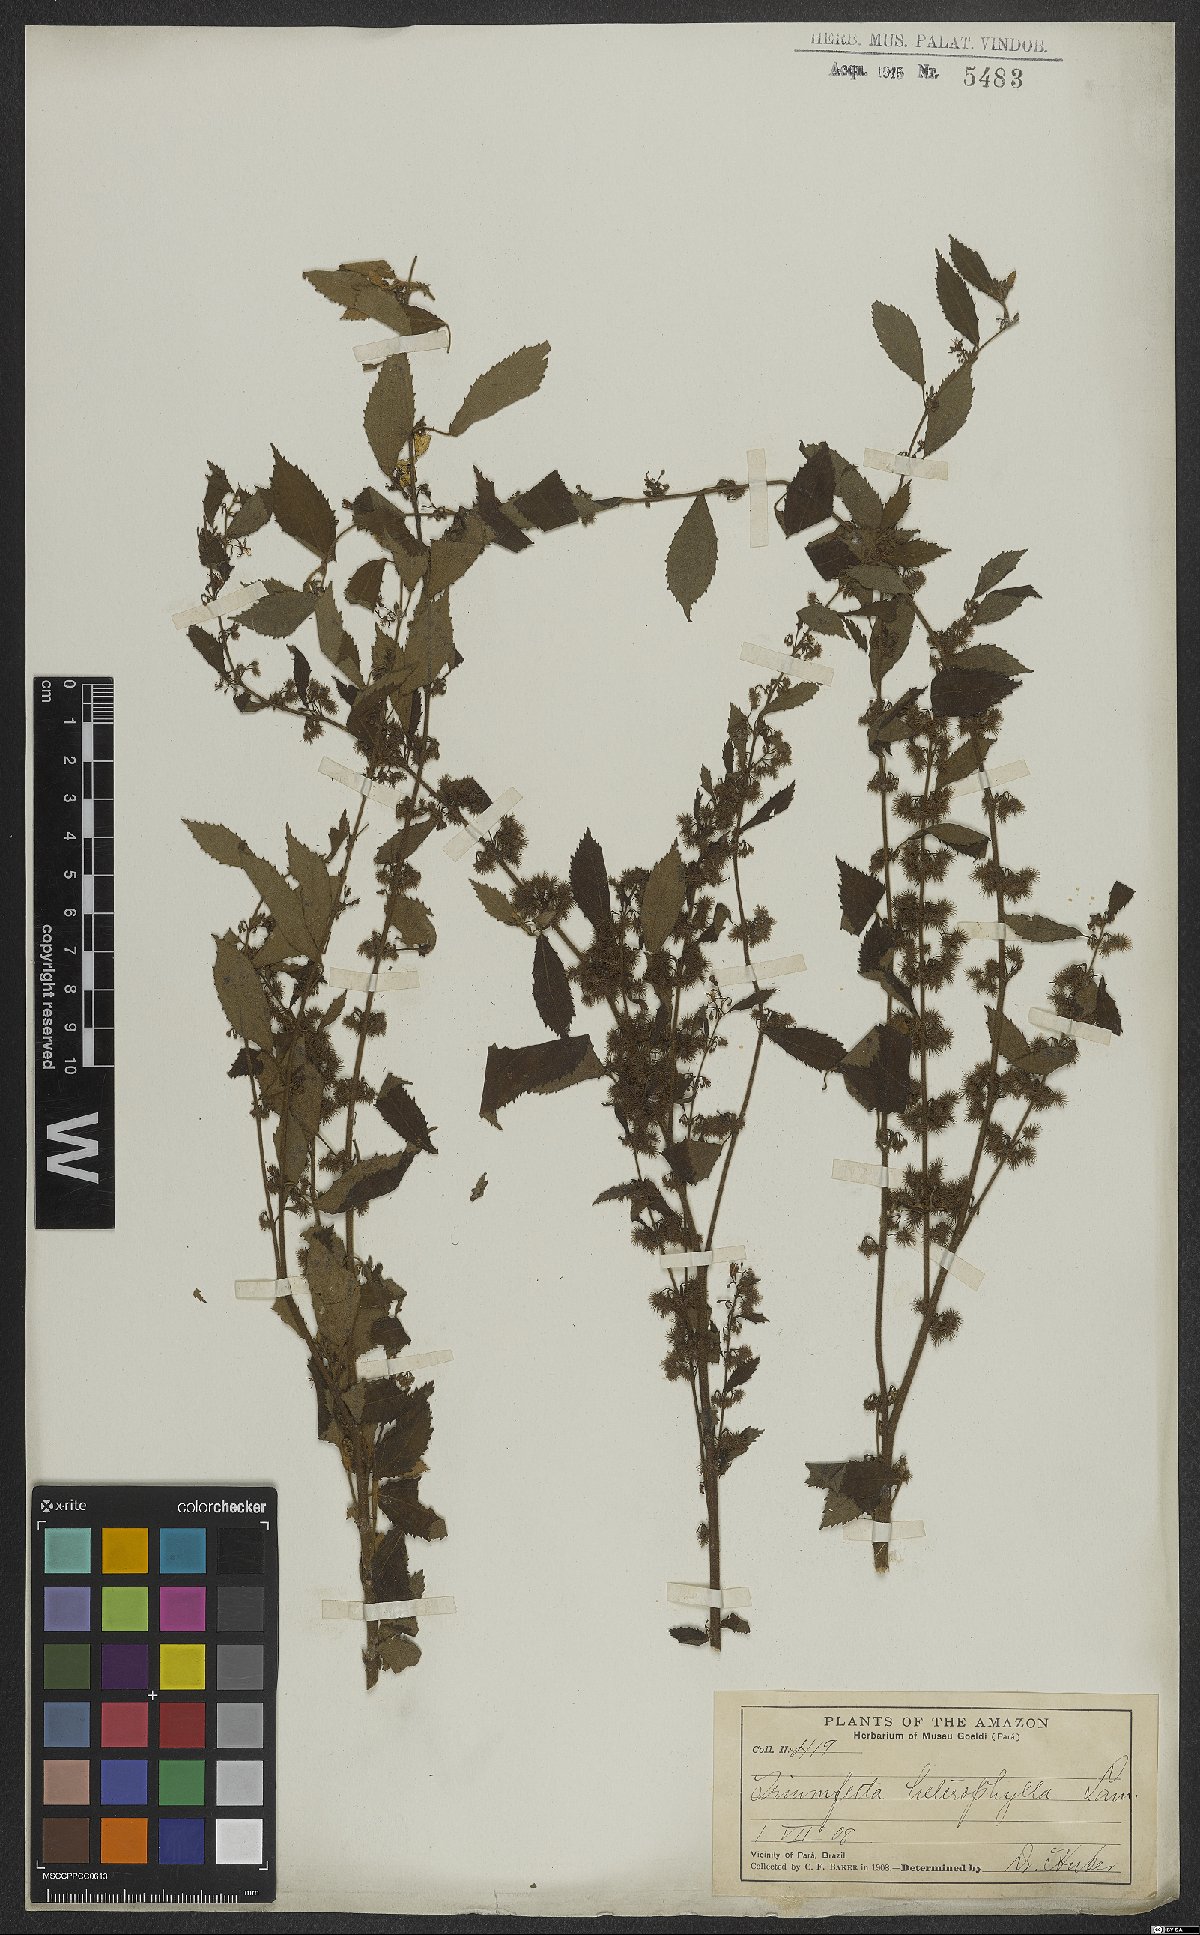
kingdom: Plantae
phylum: Tracheophyta
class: Magnoliopsida
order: Malvales
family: Malvaceae
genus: Triumfetta
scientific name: Triumfetta lappula
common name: Burbark
